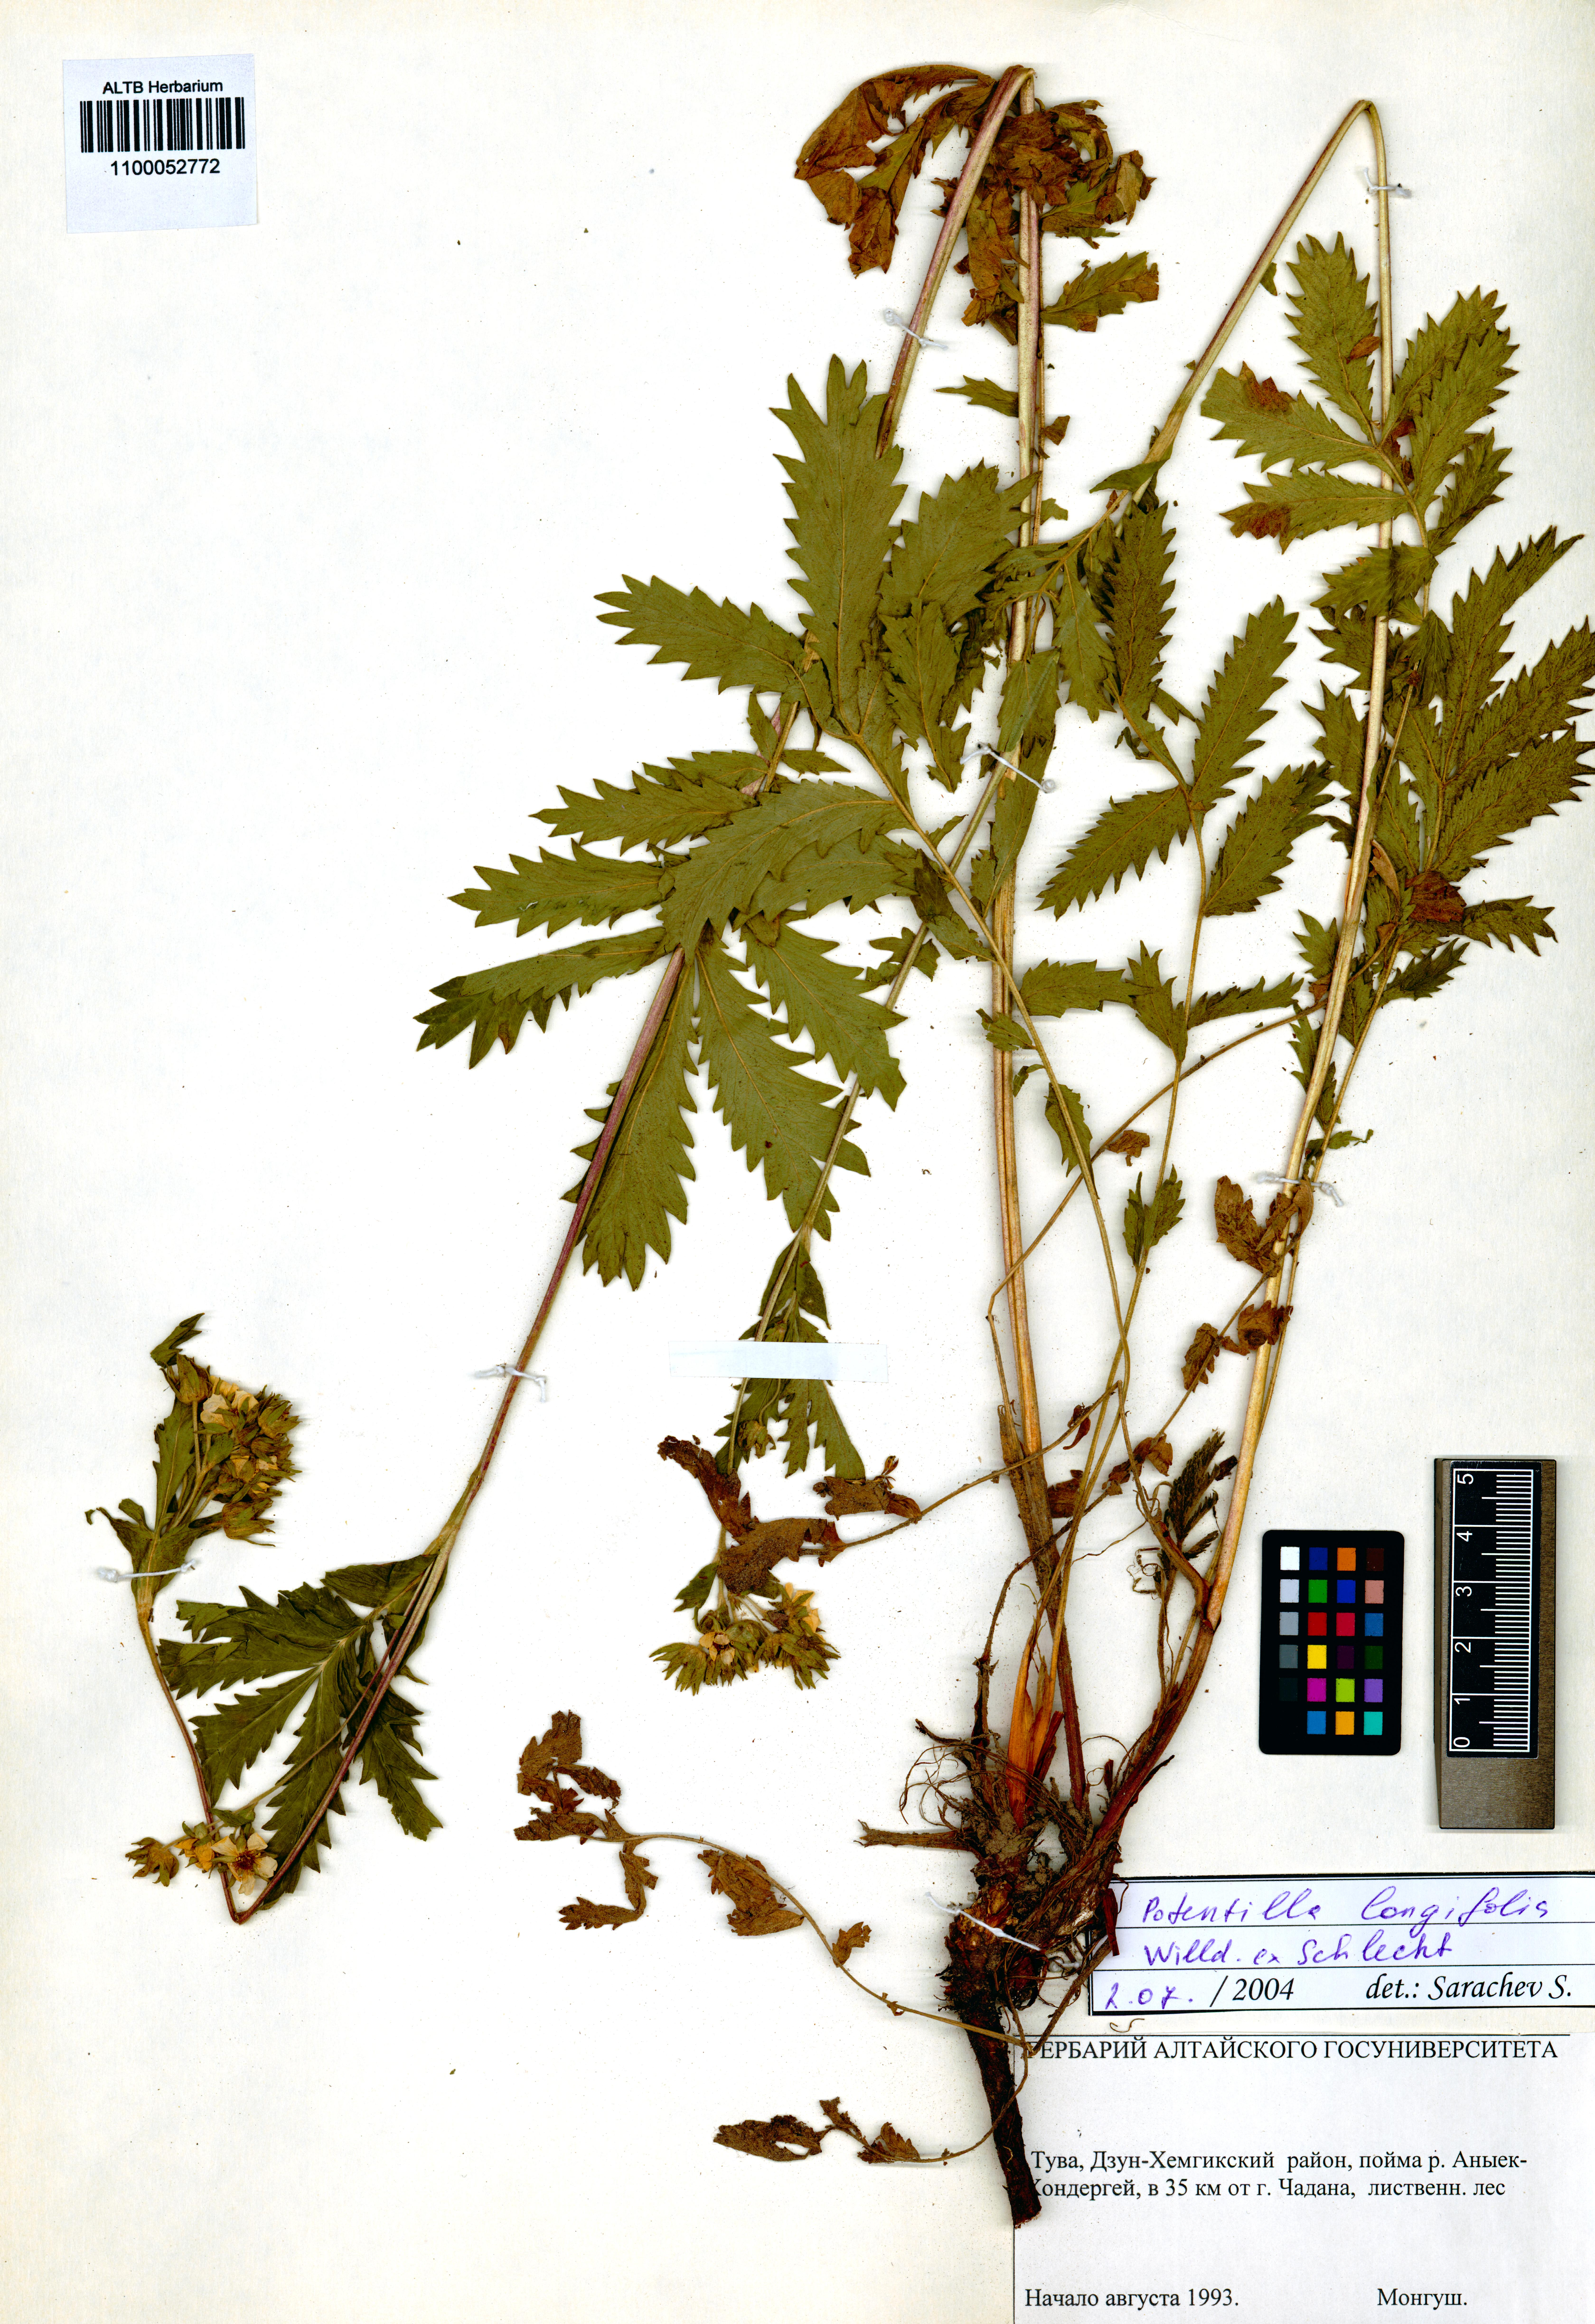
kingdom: Plantae
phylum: Tracheophyta
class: Magnoliopsida
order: Rosales
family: Rosaceae
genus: Potentilla
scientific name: Potentilla longifolia
